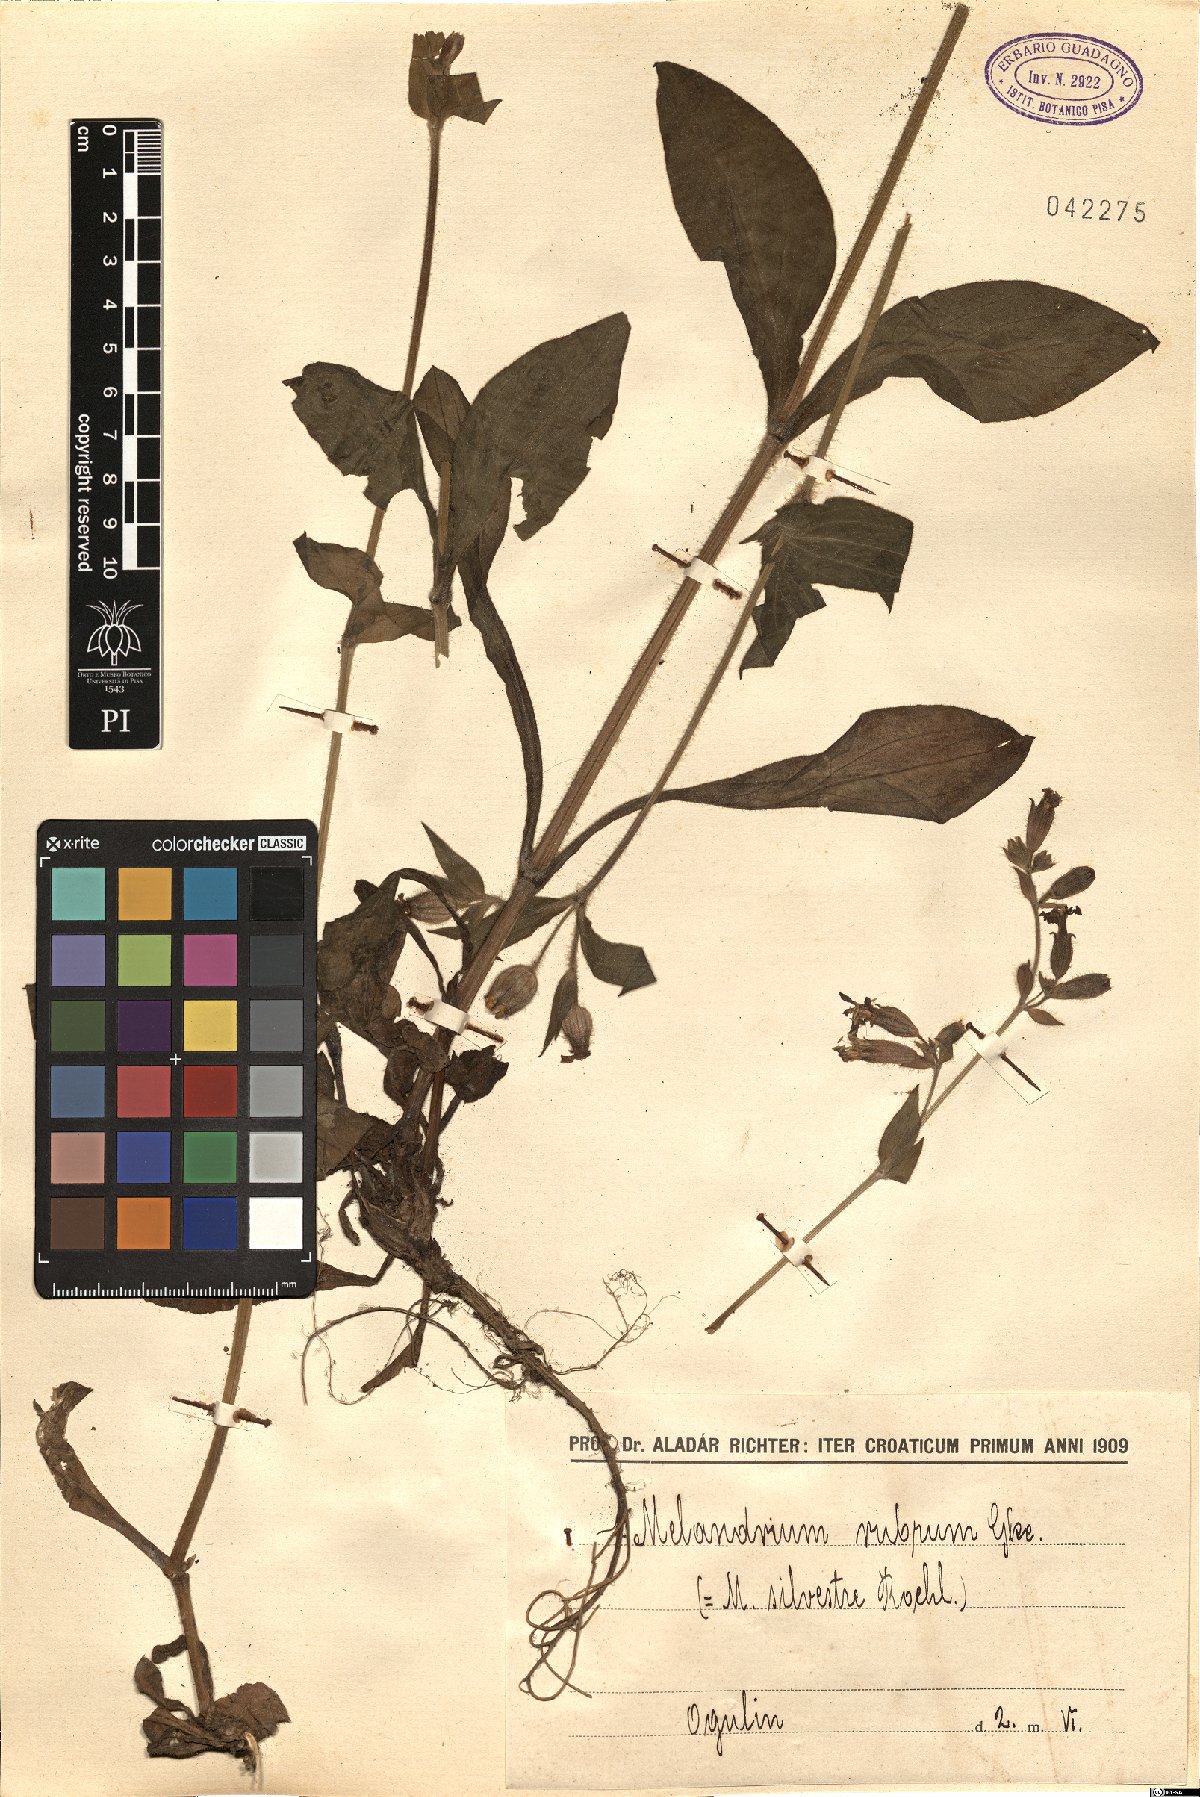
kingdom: Plantae
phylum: Tracheophyta
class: Magnoliopsida
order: Caryophyllales
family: Caryophyllaceae
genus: Silene
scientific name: Silene dioica
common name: Red campion
